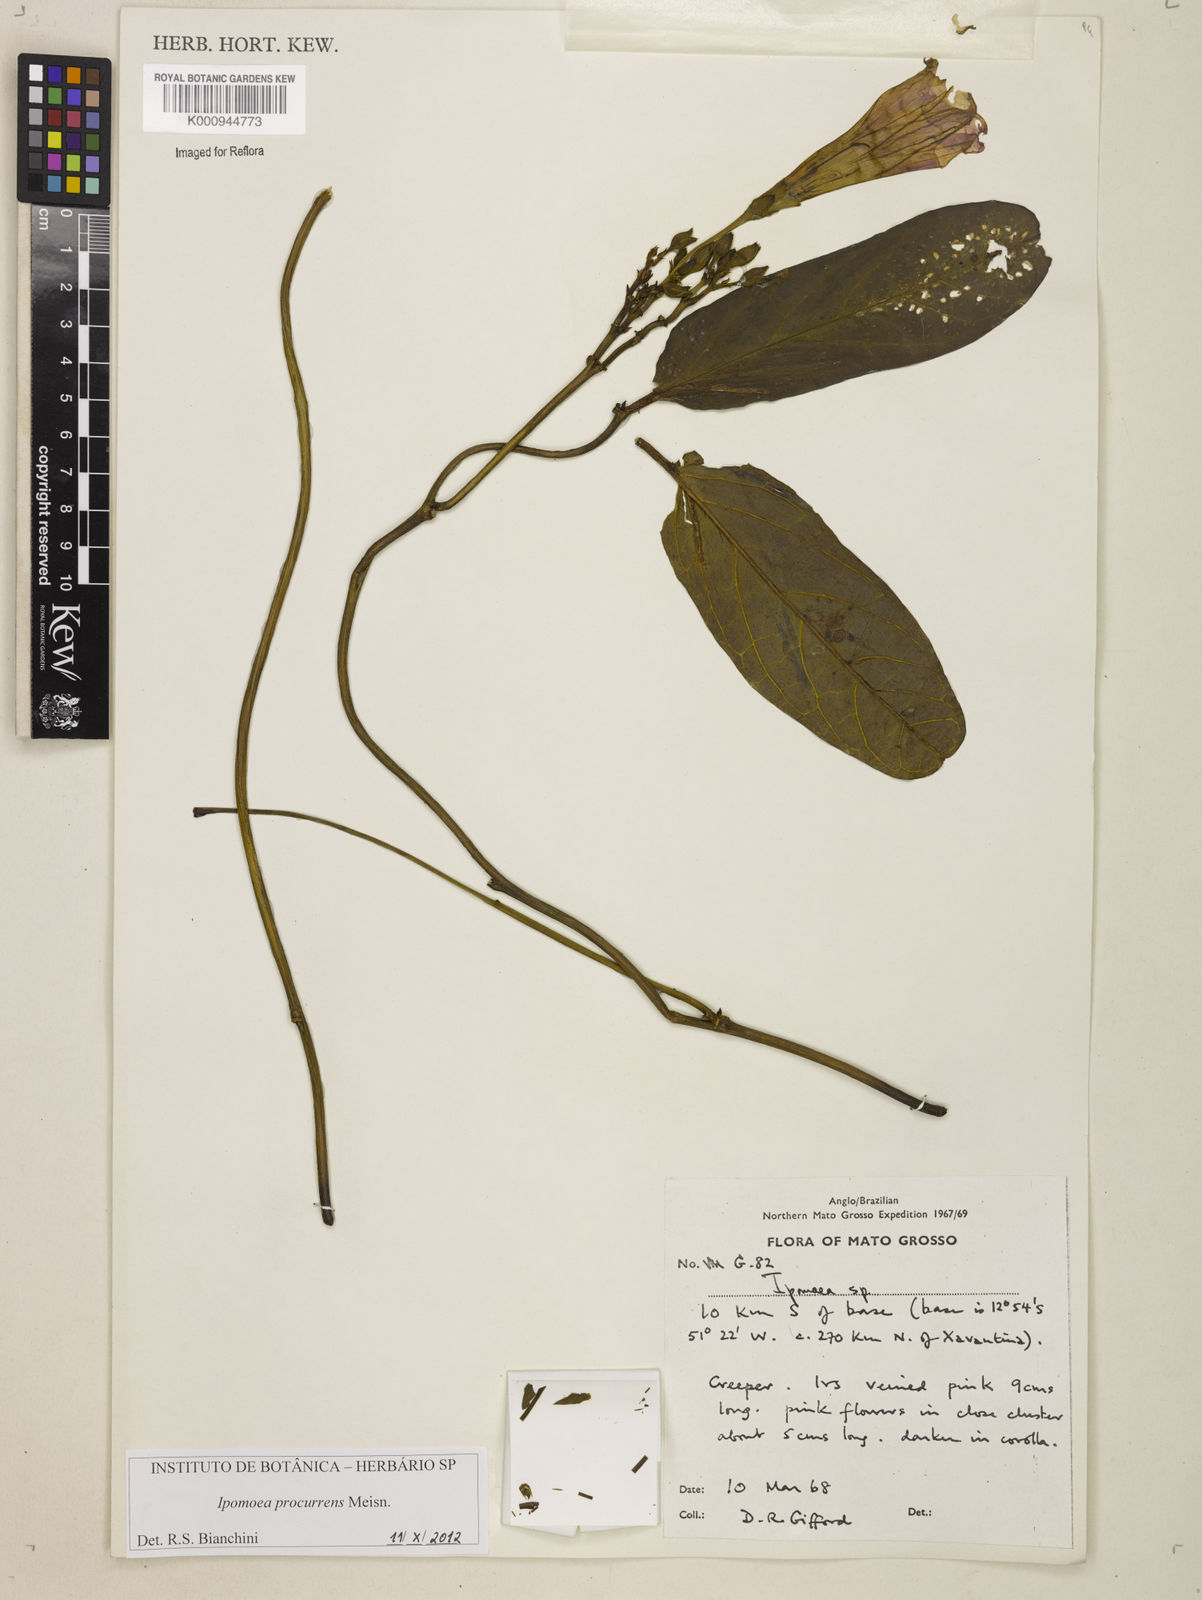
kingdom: Plantae
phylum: Tracheophyta
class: Magnoliopsida
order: Solanales
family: Convolvulaceae
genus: Ipomoea
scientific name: Ipomoea procurrens
